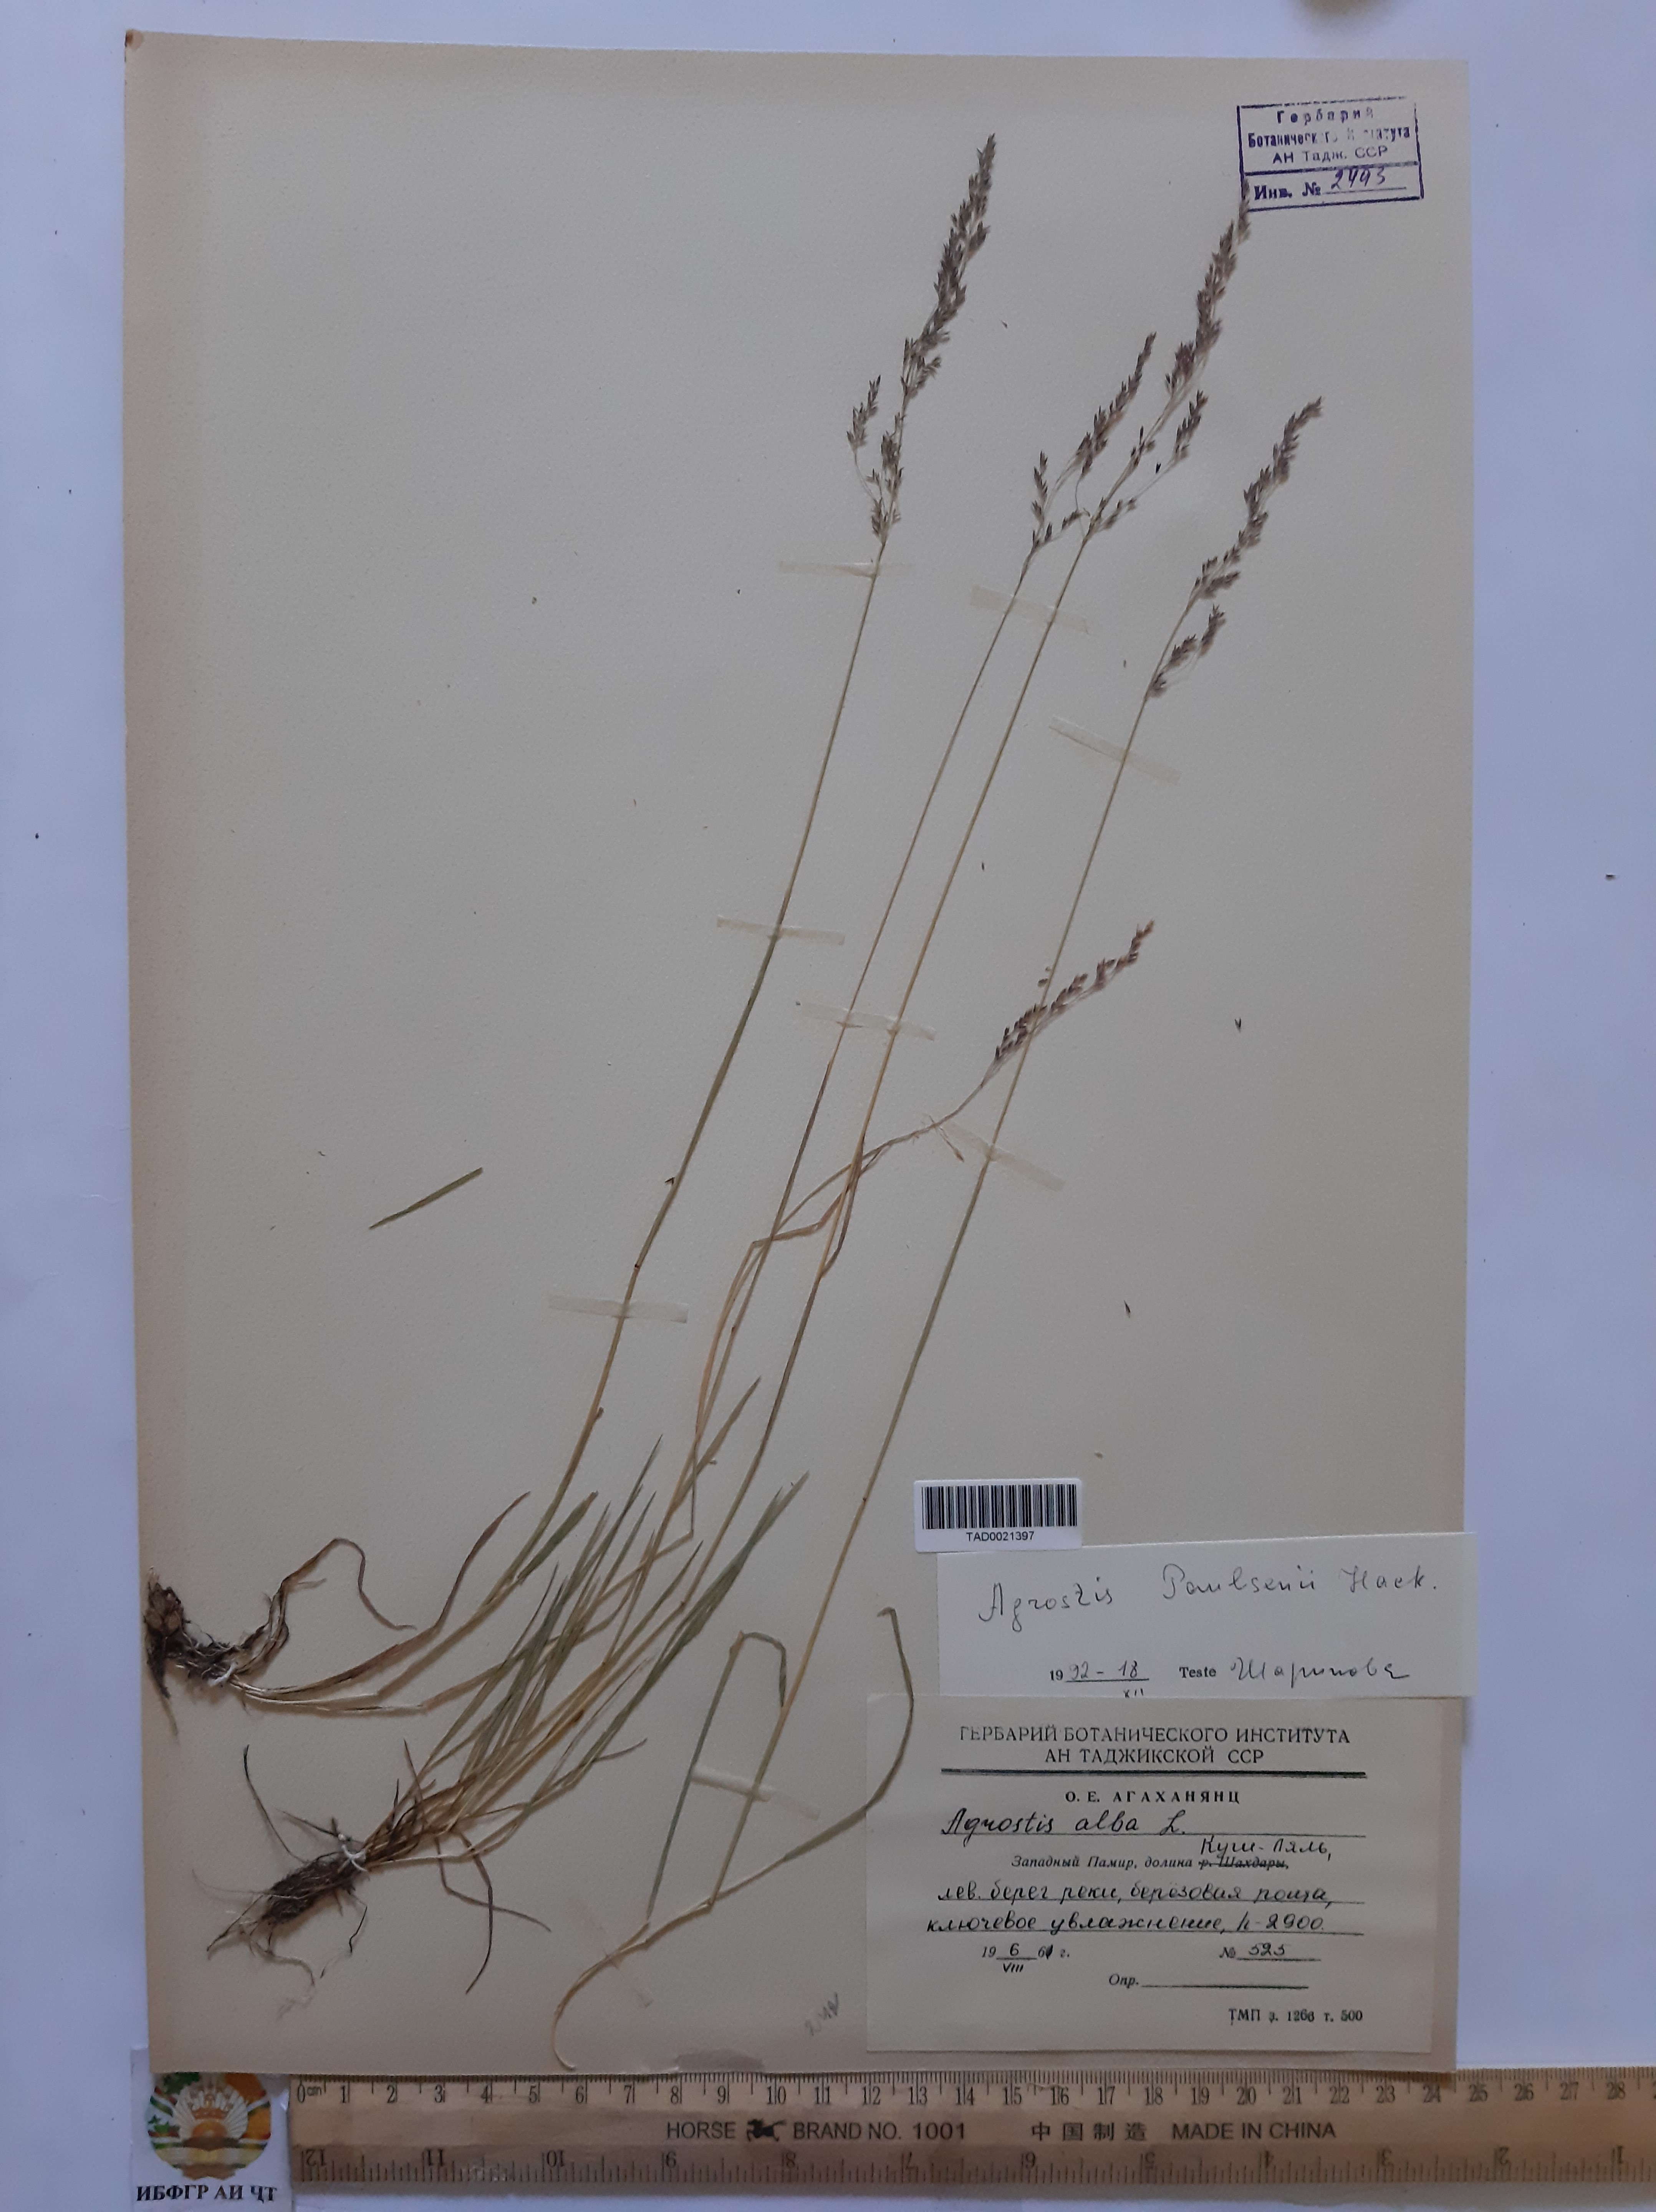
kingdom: Plantae
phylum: Tracheophyta
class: Liliopsida
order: Poales
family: Poaceae
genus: Poa
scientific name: Poa nemoralis
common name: Wood bluegrass
